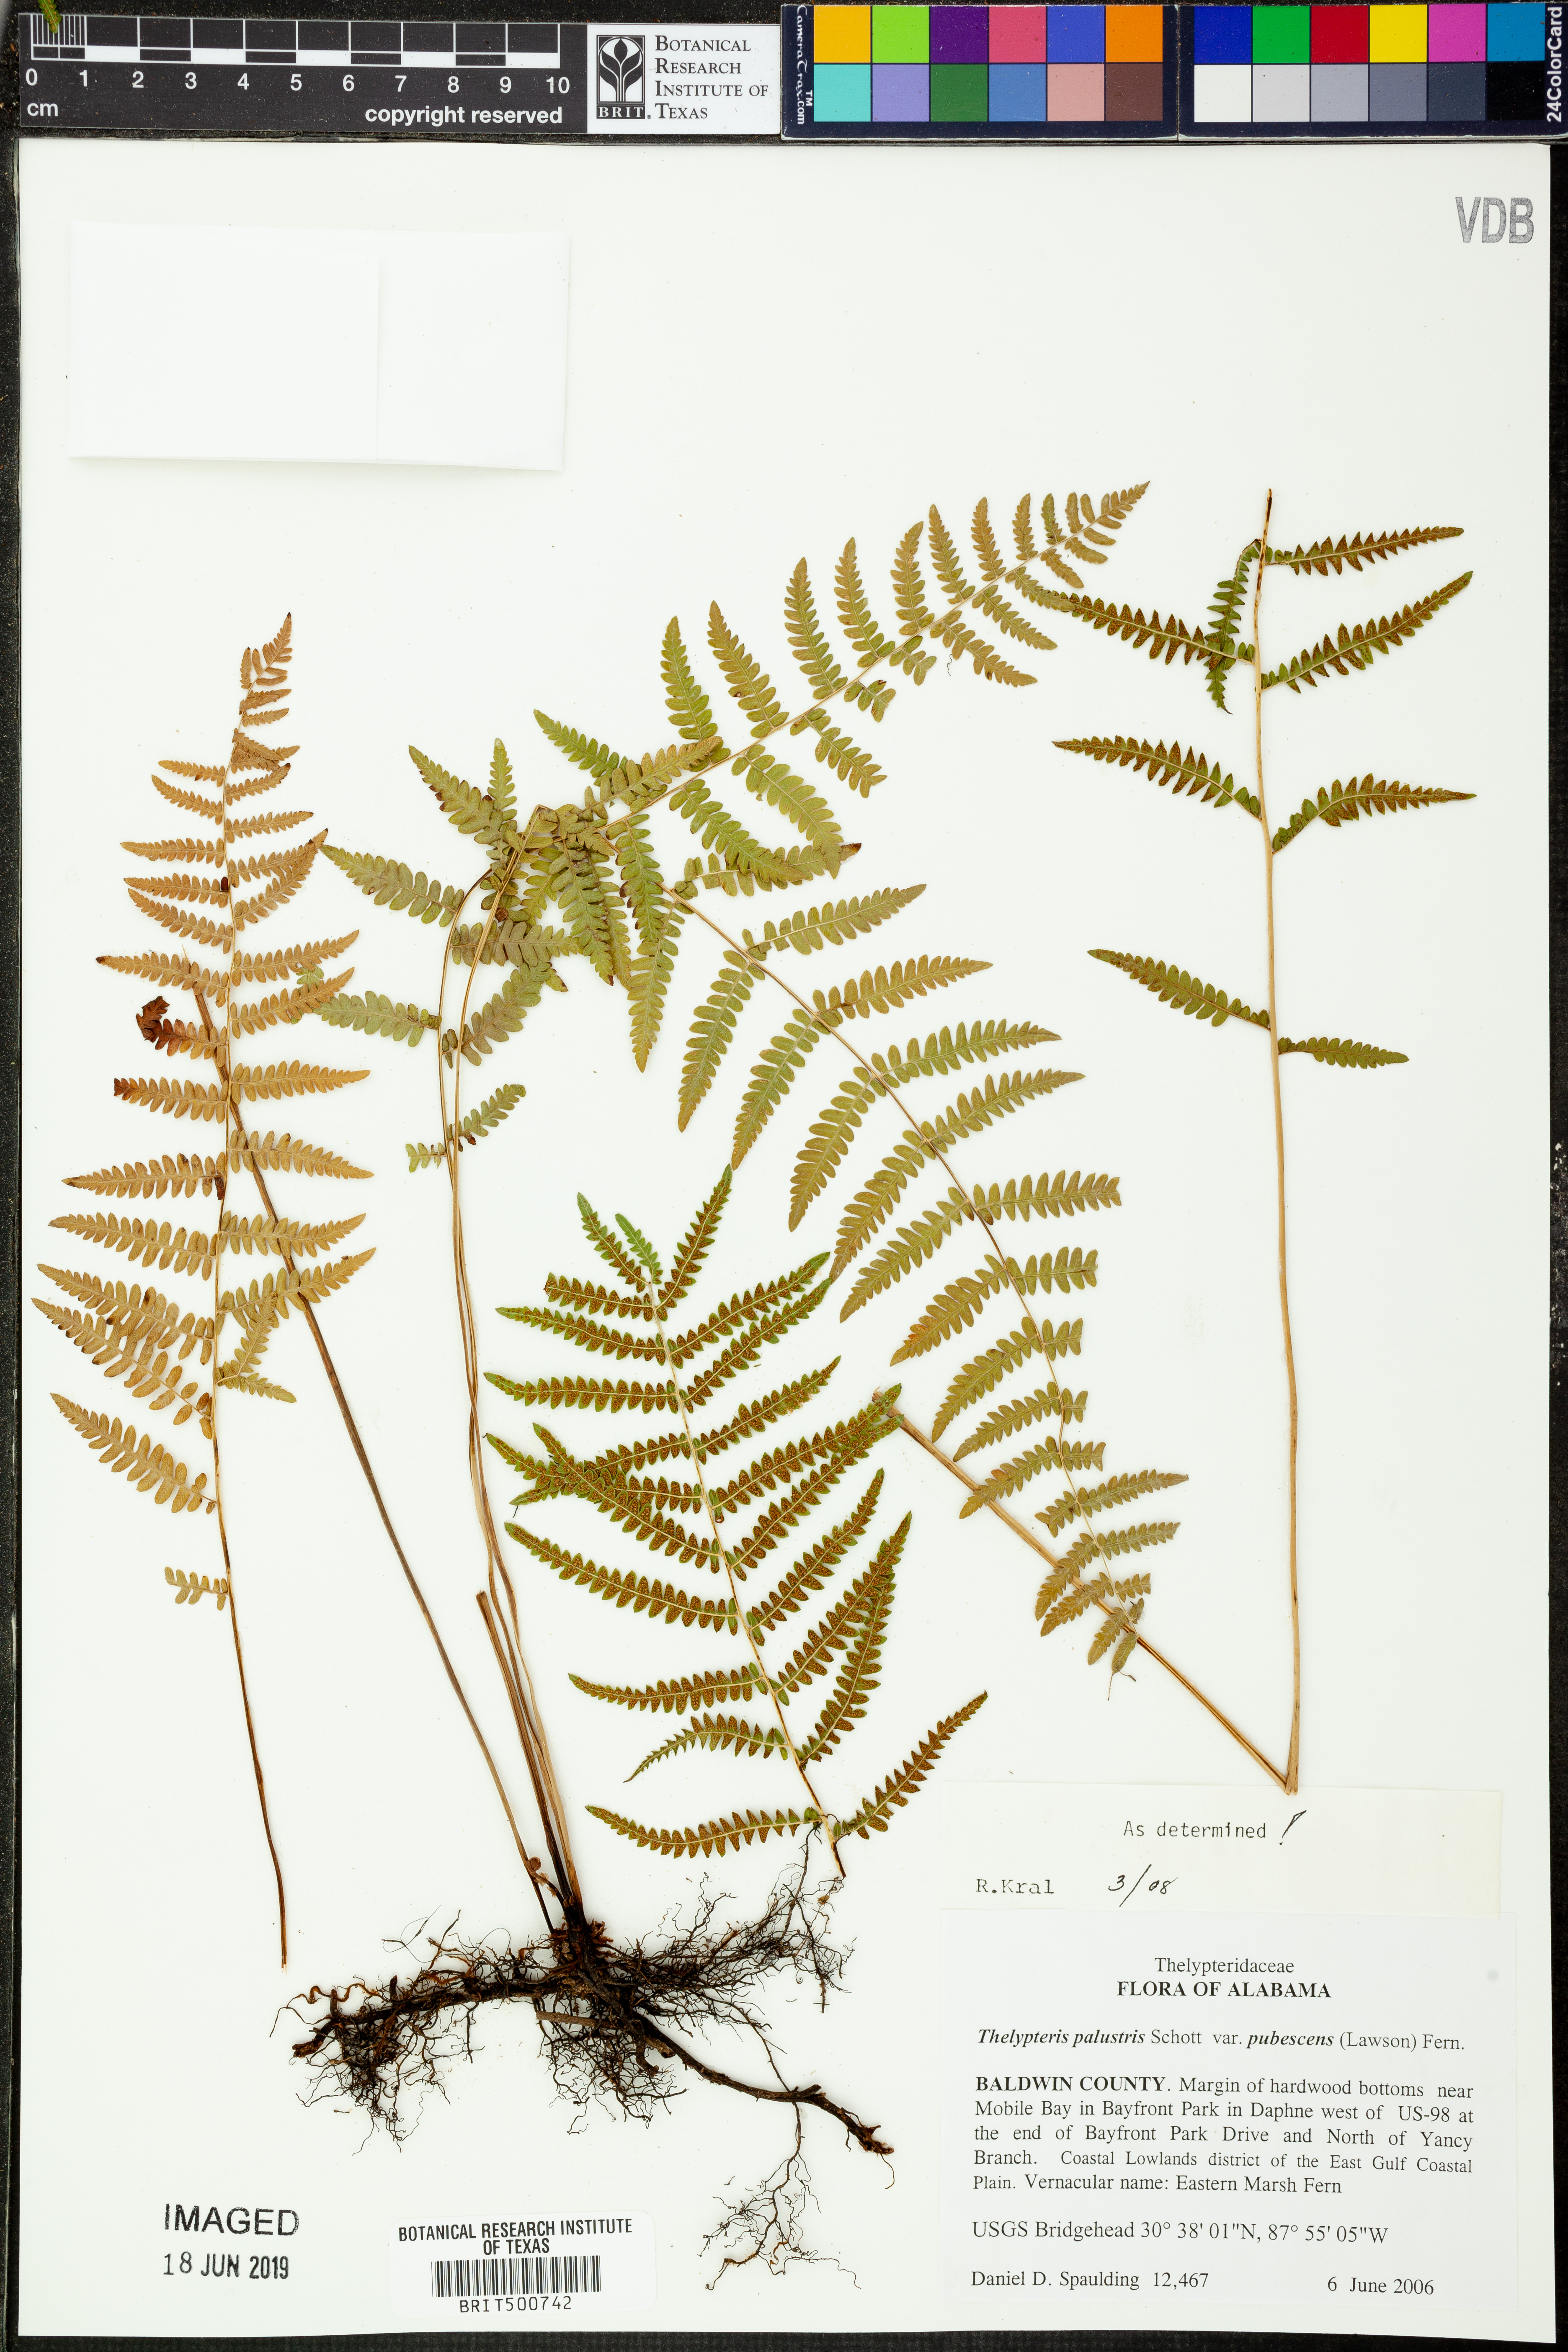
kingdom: Plantae
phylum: Tracheophyta
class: Polypodiopsida
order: Polypodiales
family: Thelypteridaceae
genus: Thelypteris
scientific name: Thelypteris palustris
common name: Marsh fern
